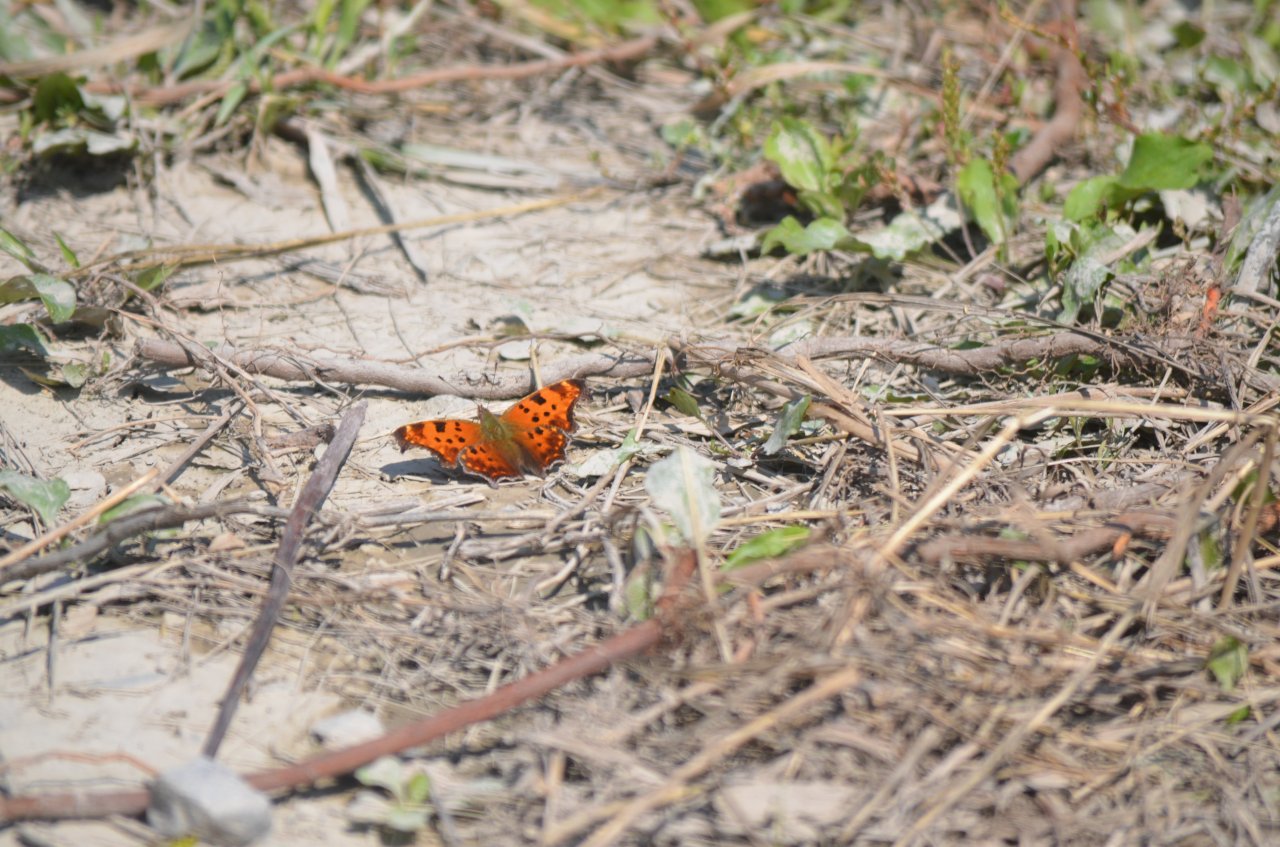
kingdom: Animalia
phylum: Arthropoda
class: Insecta
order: Lepidoptera
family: Nymphalidae
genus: Polygonia
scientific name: Polygonia comma
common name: Eastern Comma
